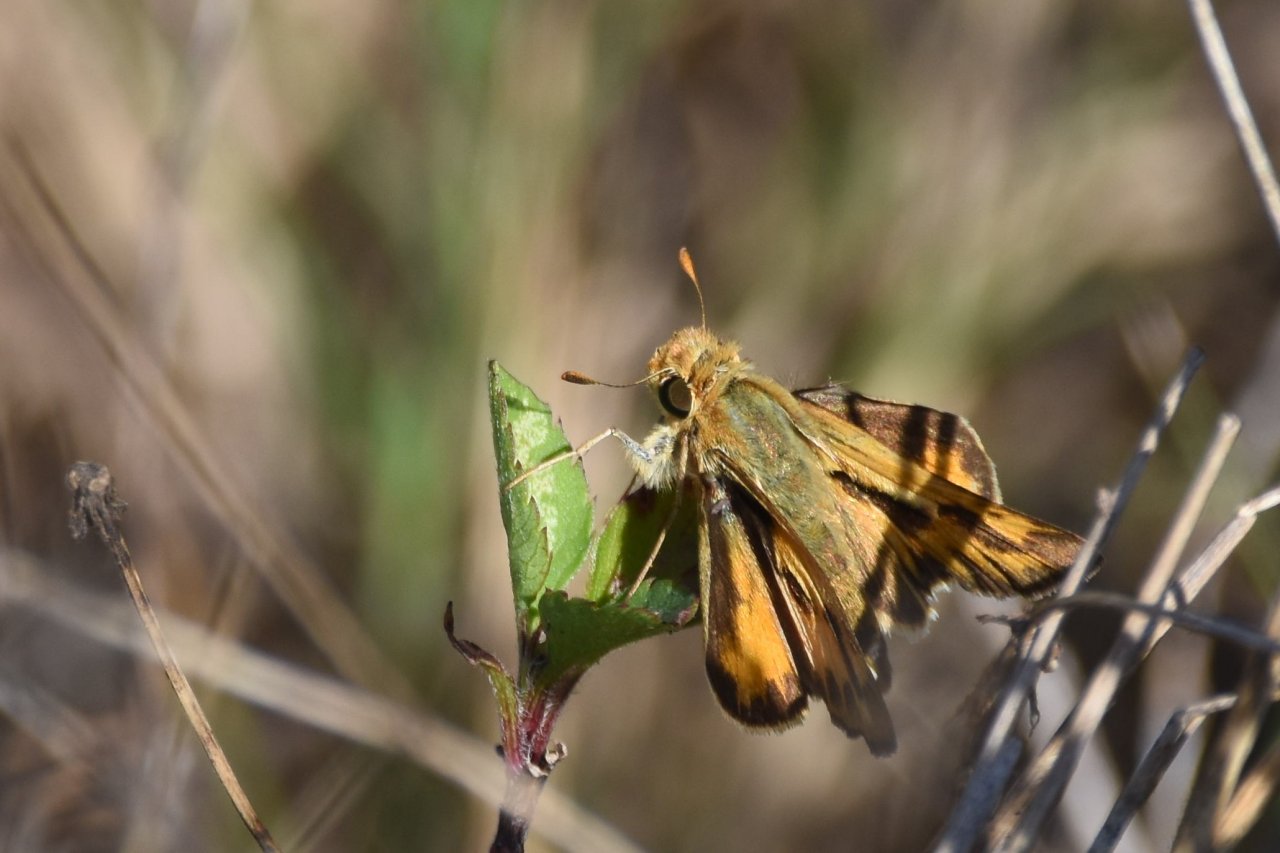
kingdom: Animalia
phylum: Arthropoda
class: Insecta
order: Lepidoptera
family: Hesperiidae
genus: Hylephila
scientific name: Hylephila phyleus
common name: Fiery Skipper
